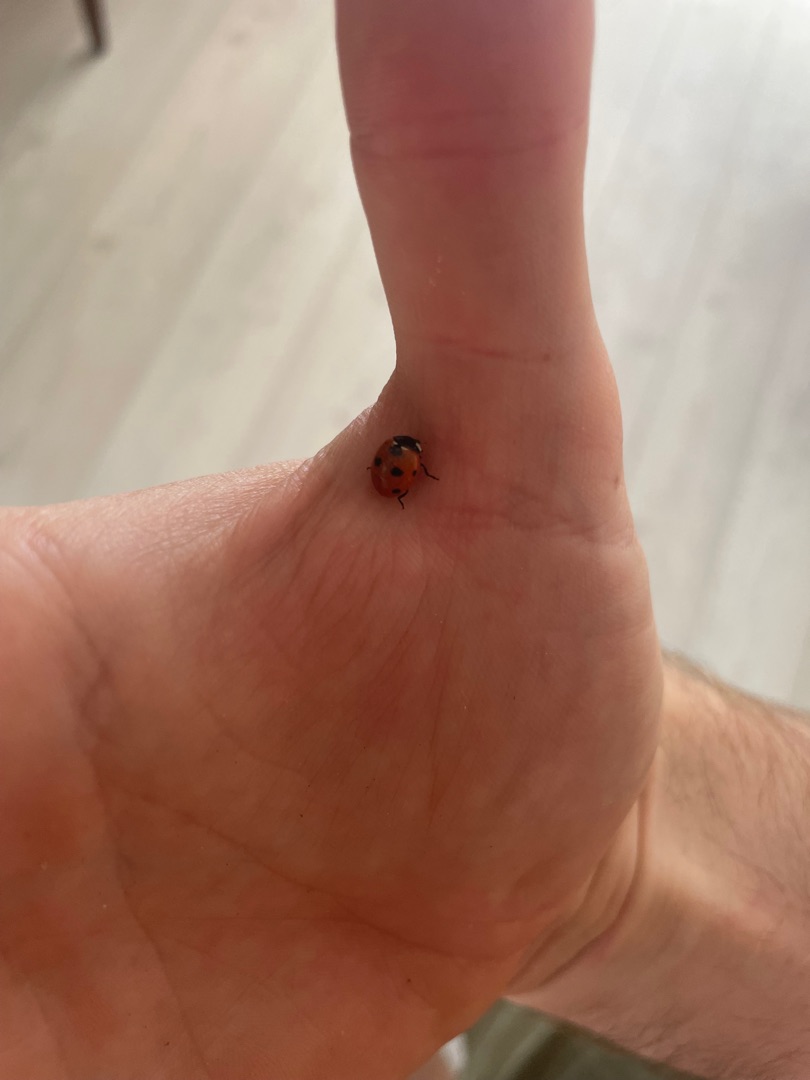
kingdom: Animalia
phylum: Arthropoda
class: Insecta
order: Coleoptera
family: Coccinellidae
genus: Coccinella
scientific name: Coccinella septempunctata
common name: Syvplettet mariehøne
